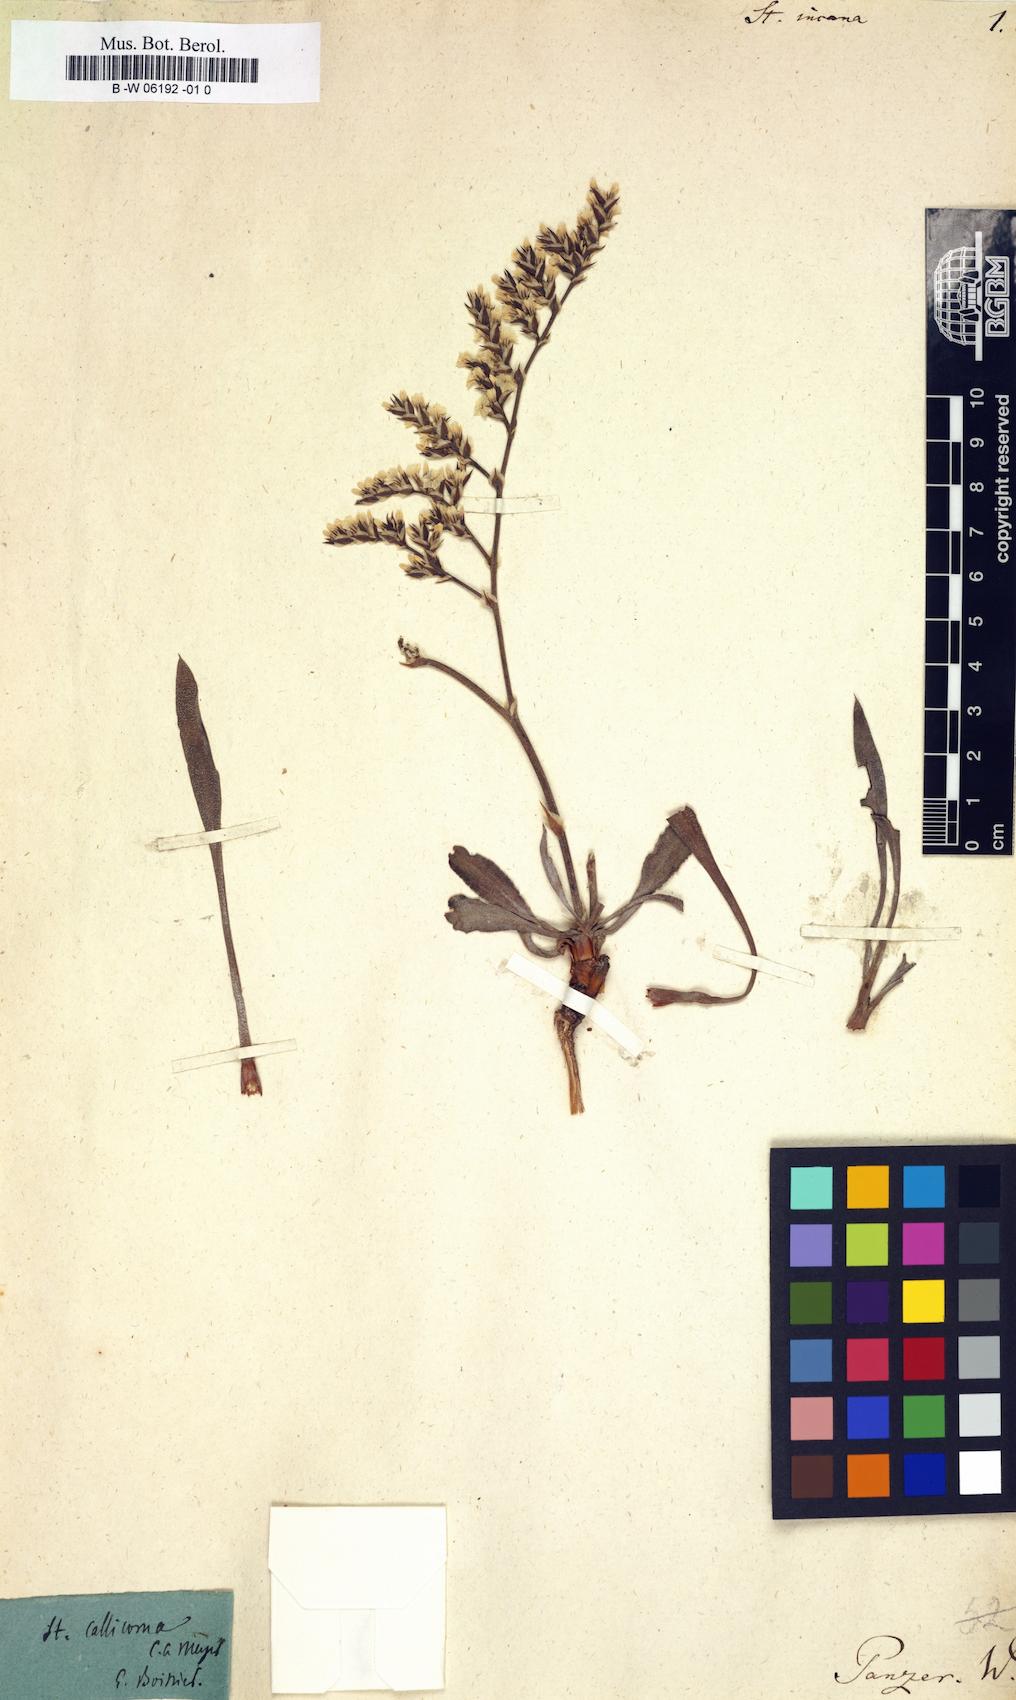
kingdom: Plantae
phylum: Tracheophyta
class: Magnoliopsida
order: Caryophyllales
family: Plumbaginaceae
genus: Goniolimon
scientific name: Goniolimon
